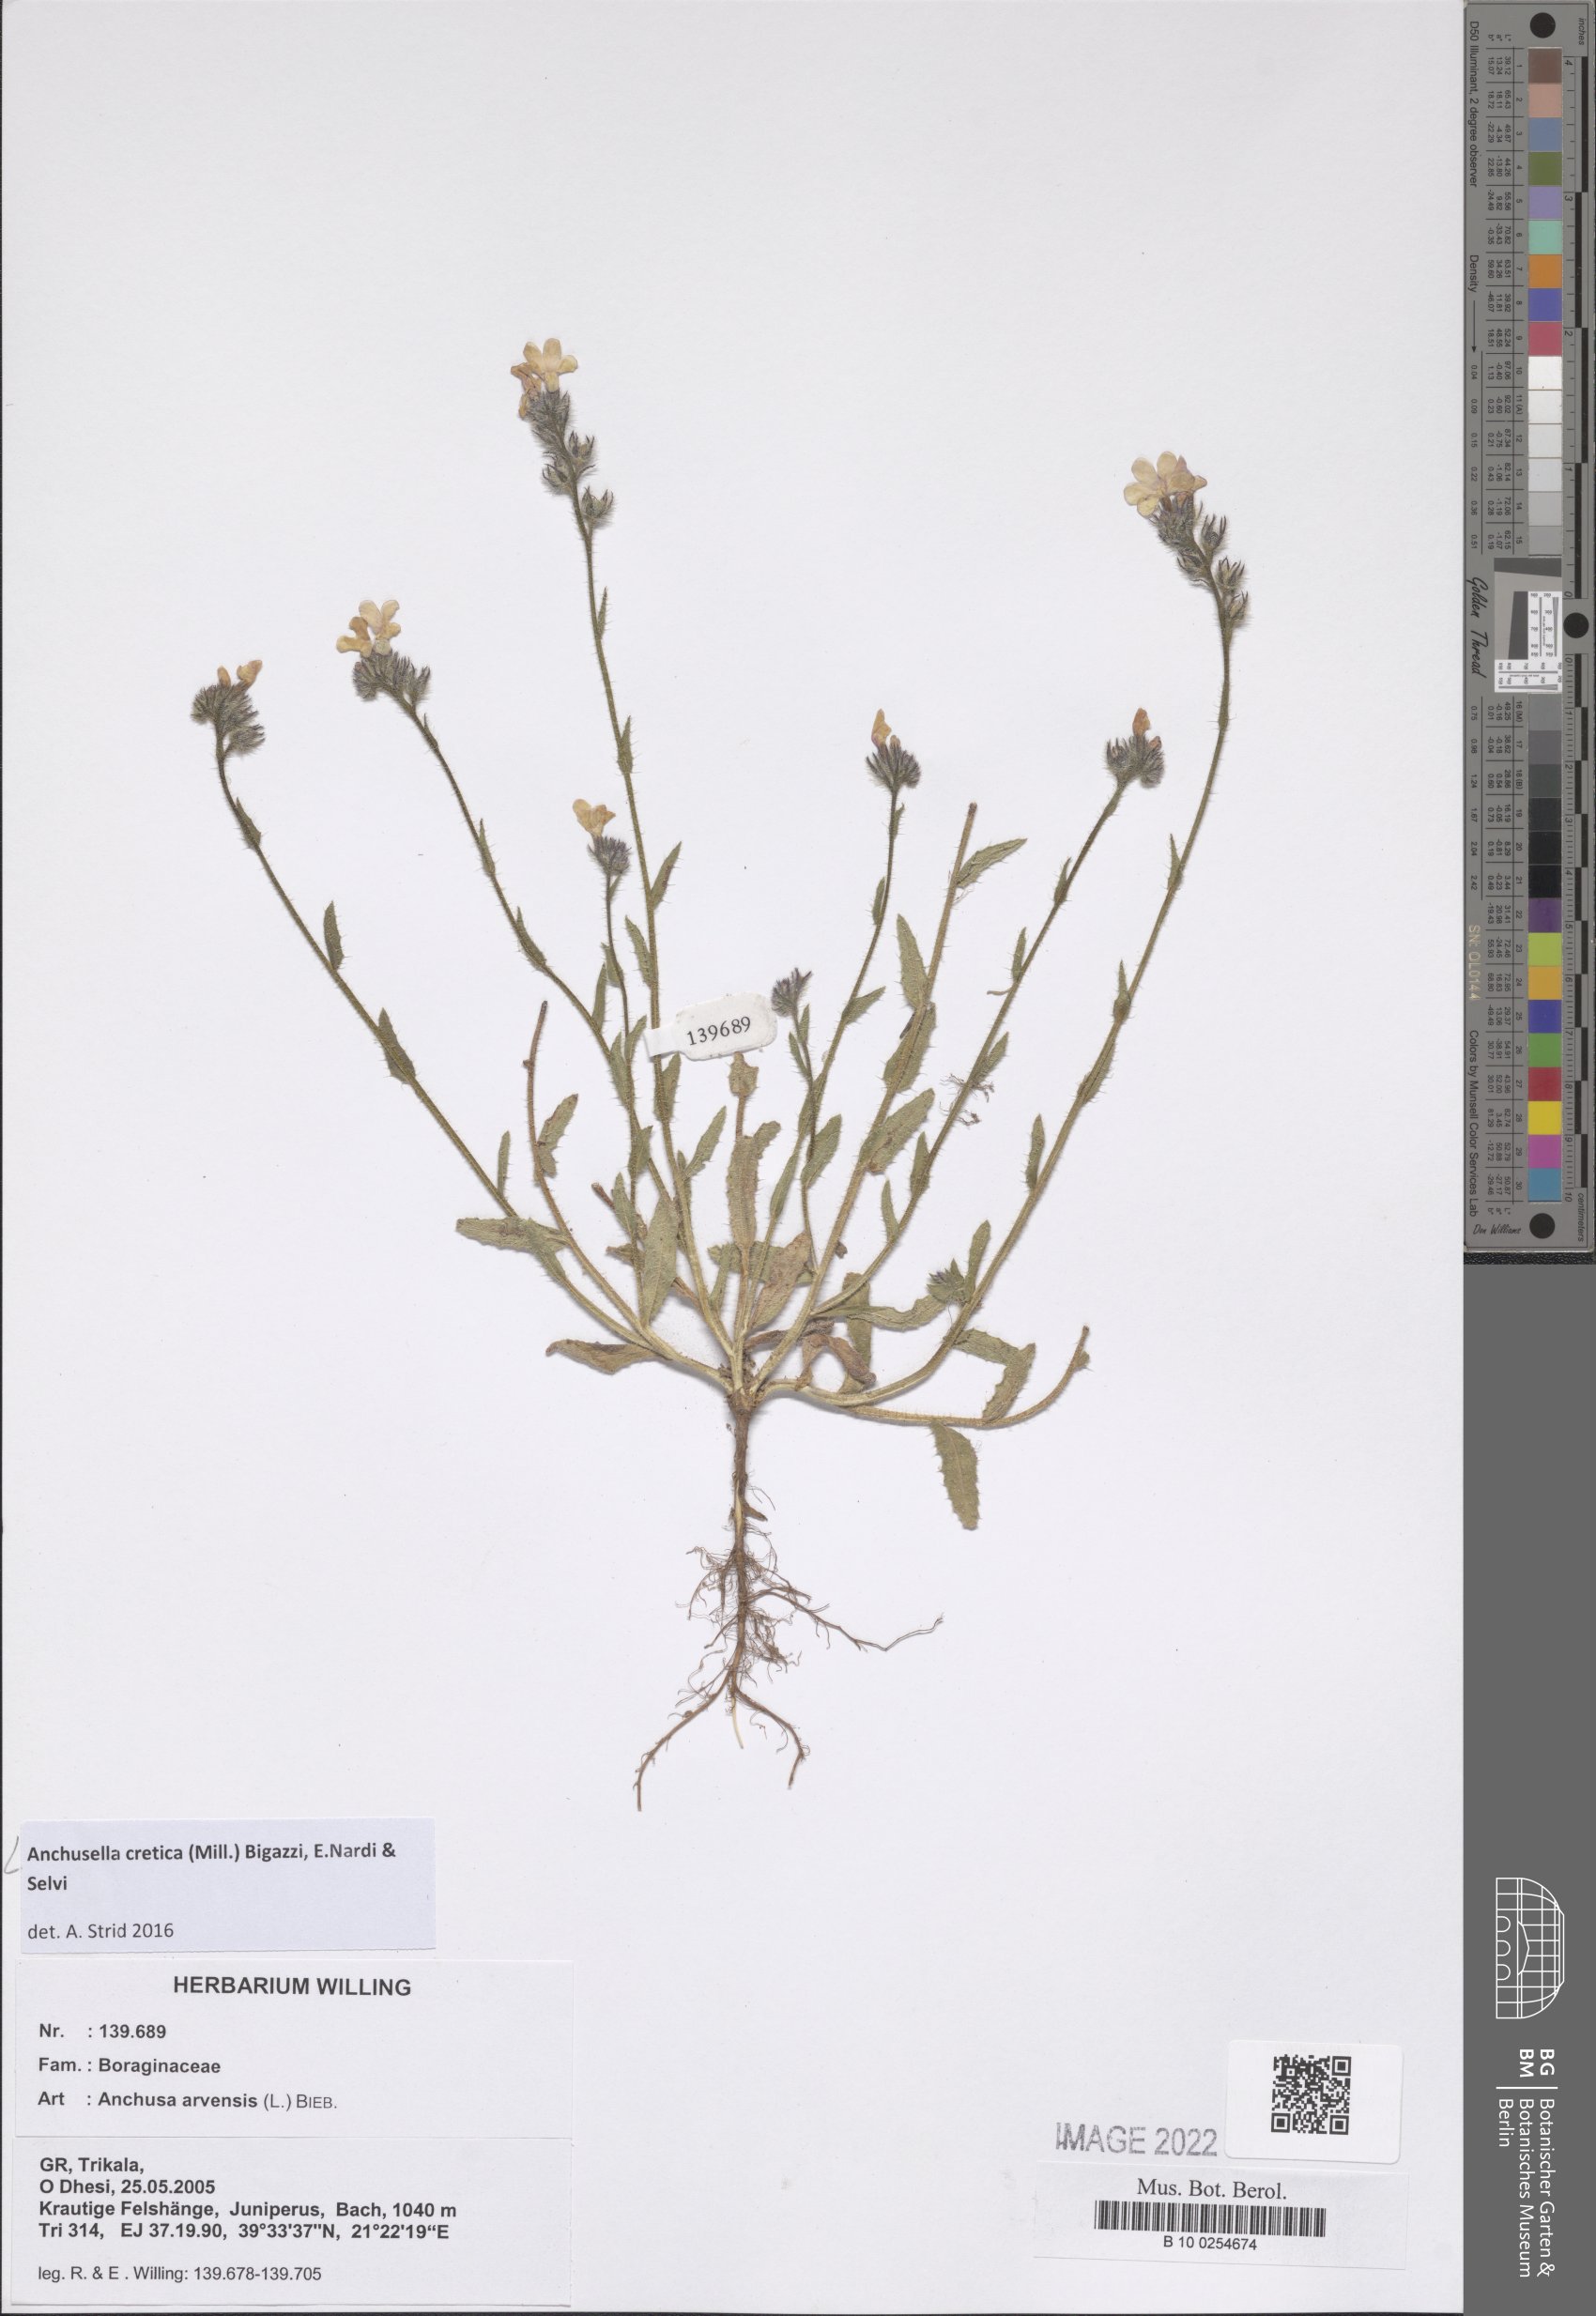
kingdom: Plantae
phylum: Tracheophyta
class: Magnoliopsida
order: Boraginales
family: Boraginaceae
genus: Anchusella
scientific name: Anchusella cretica
